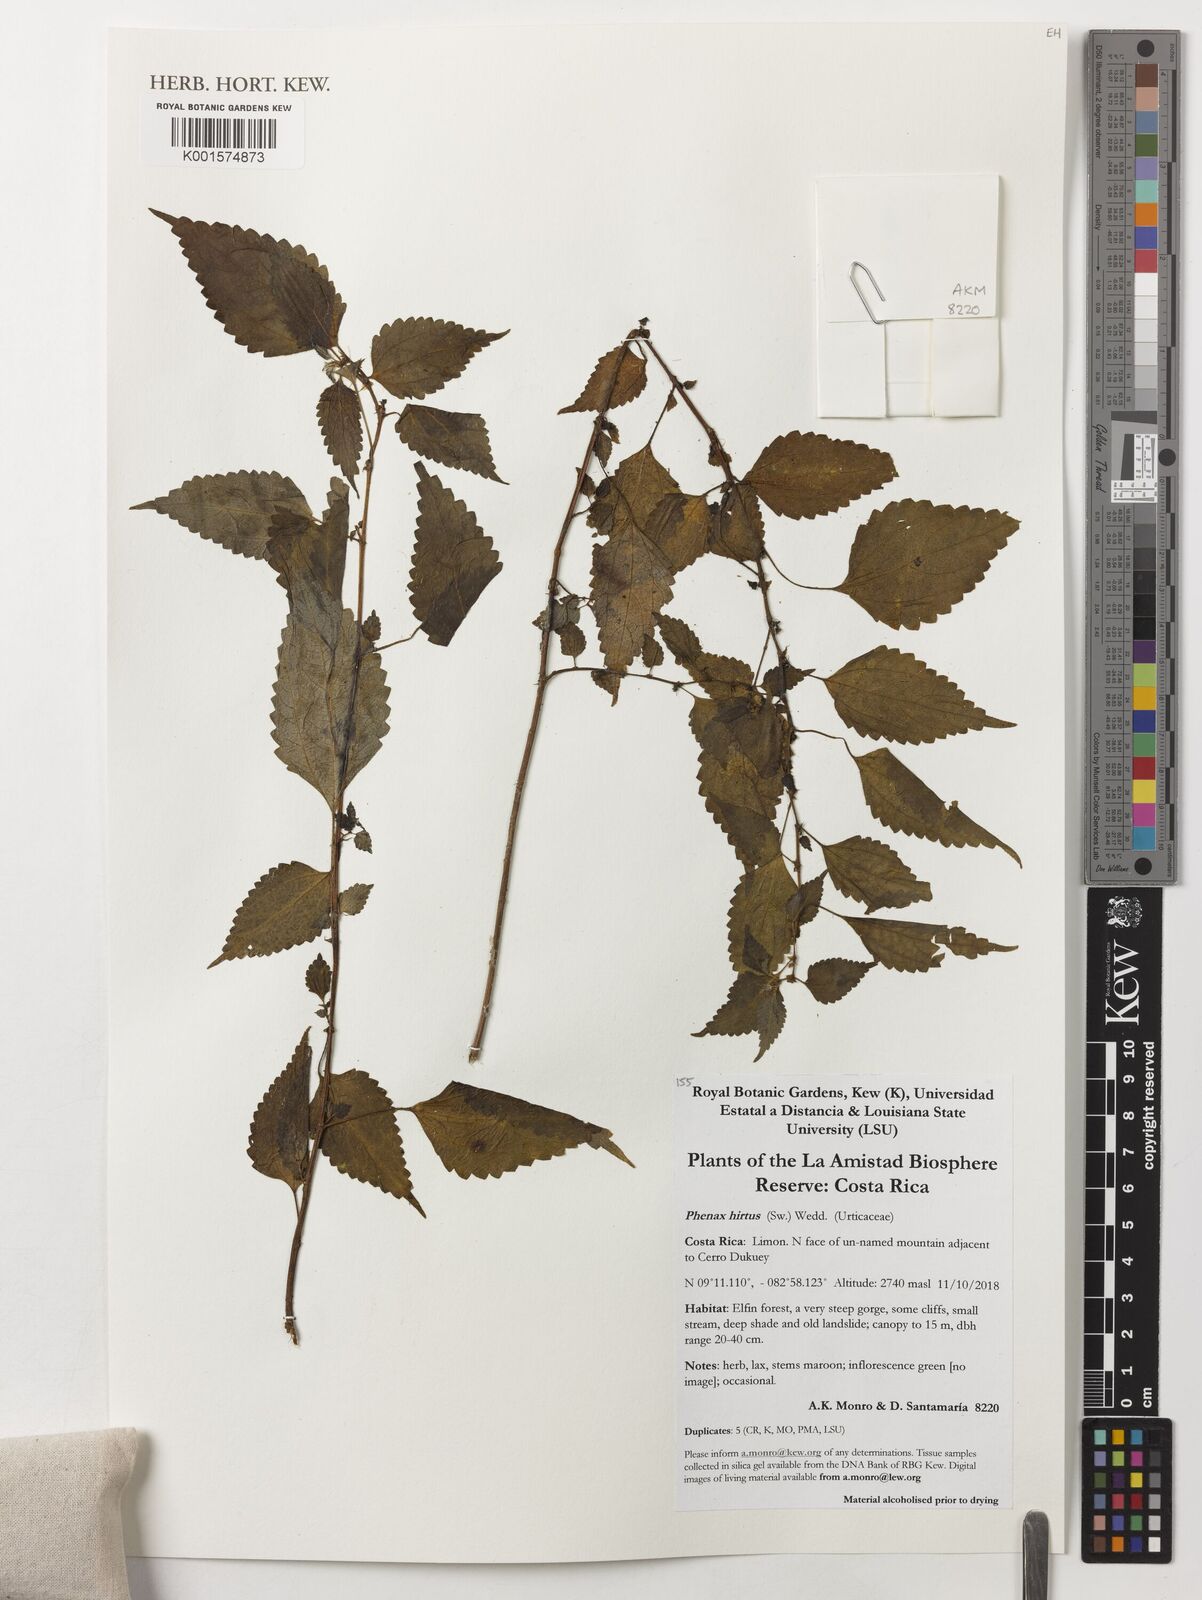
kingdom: Plantae
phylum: Tracheophyta
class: Magnoliopsida
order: Rosales
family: Urticaceae
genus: Phenax
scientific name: Phenax hirtus
